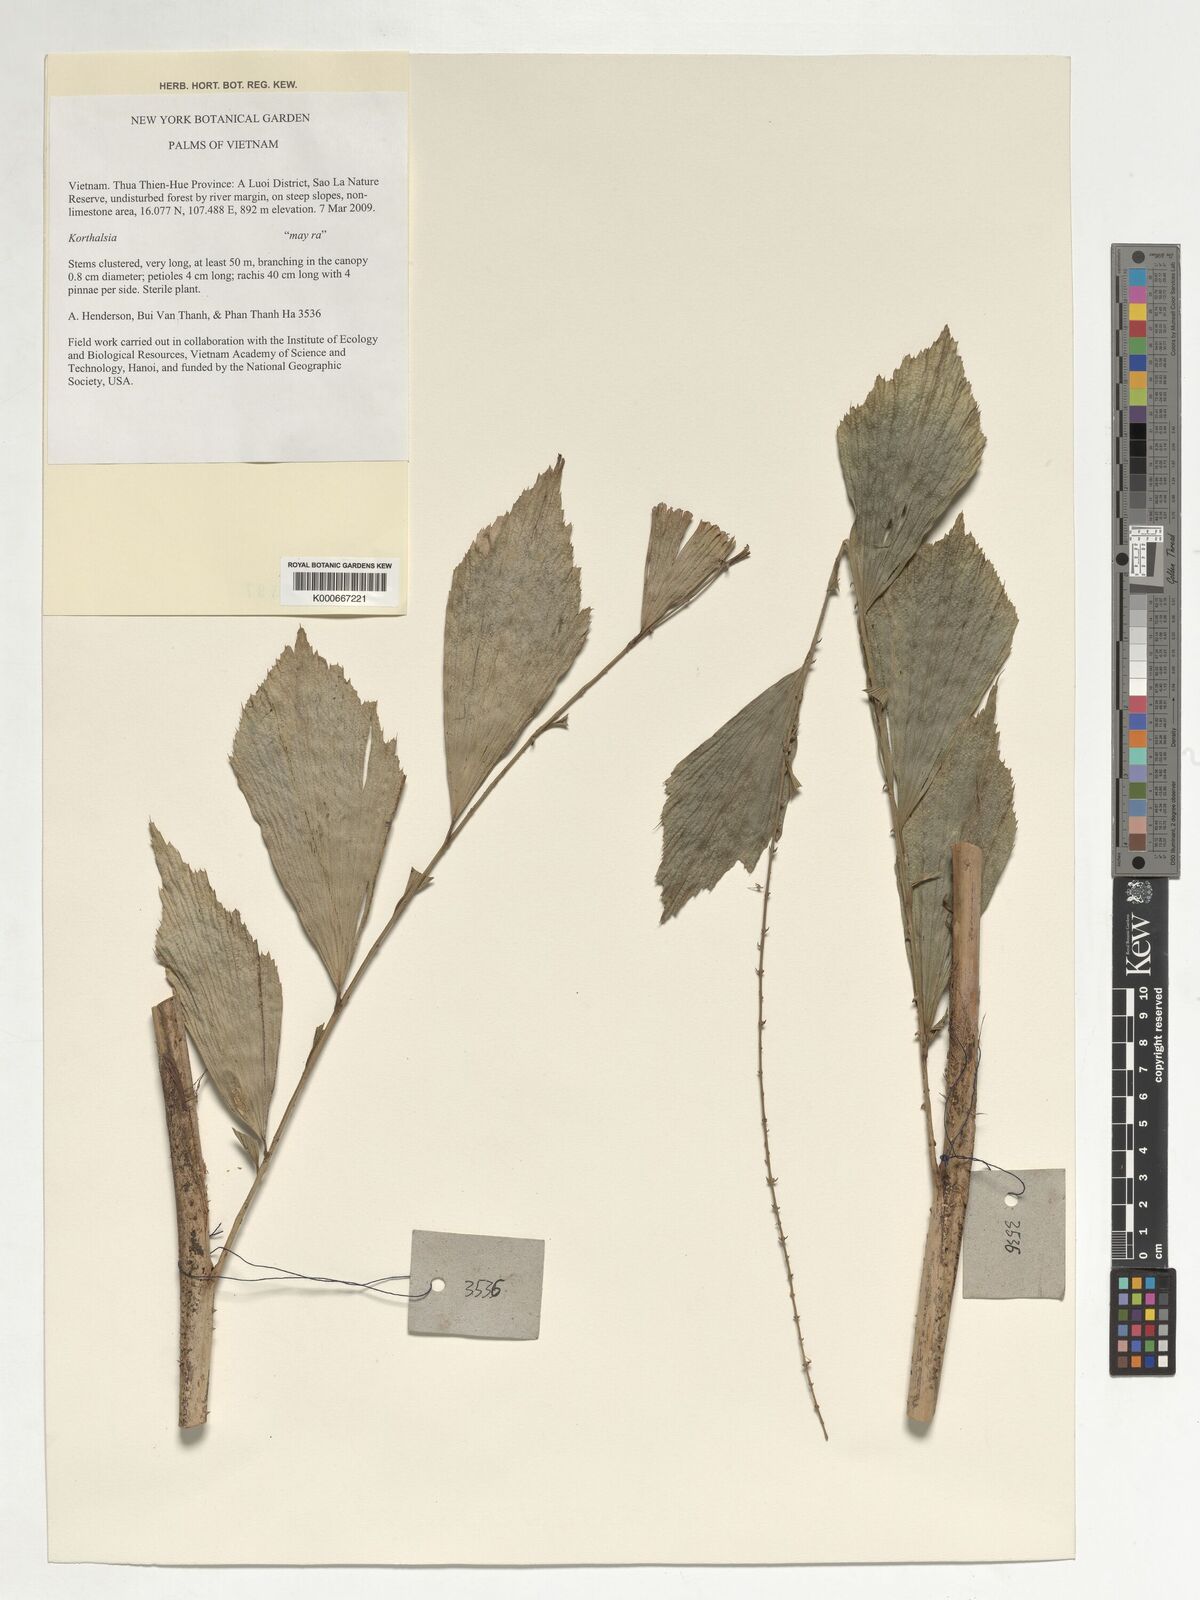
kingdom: Plantae
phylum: Tracheophyta
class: Liliopsida
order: Arecales
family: Arecaceae
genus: Korthalsia
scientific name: Korthalsia
